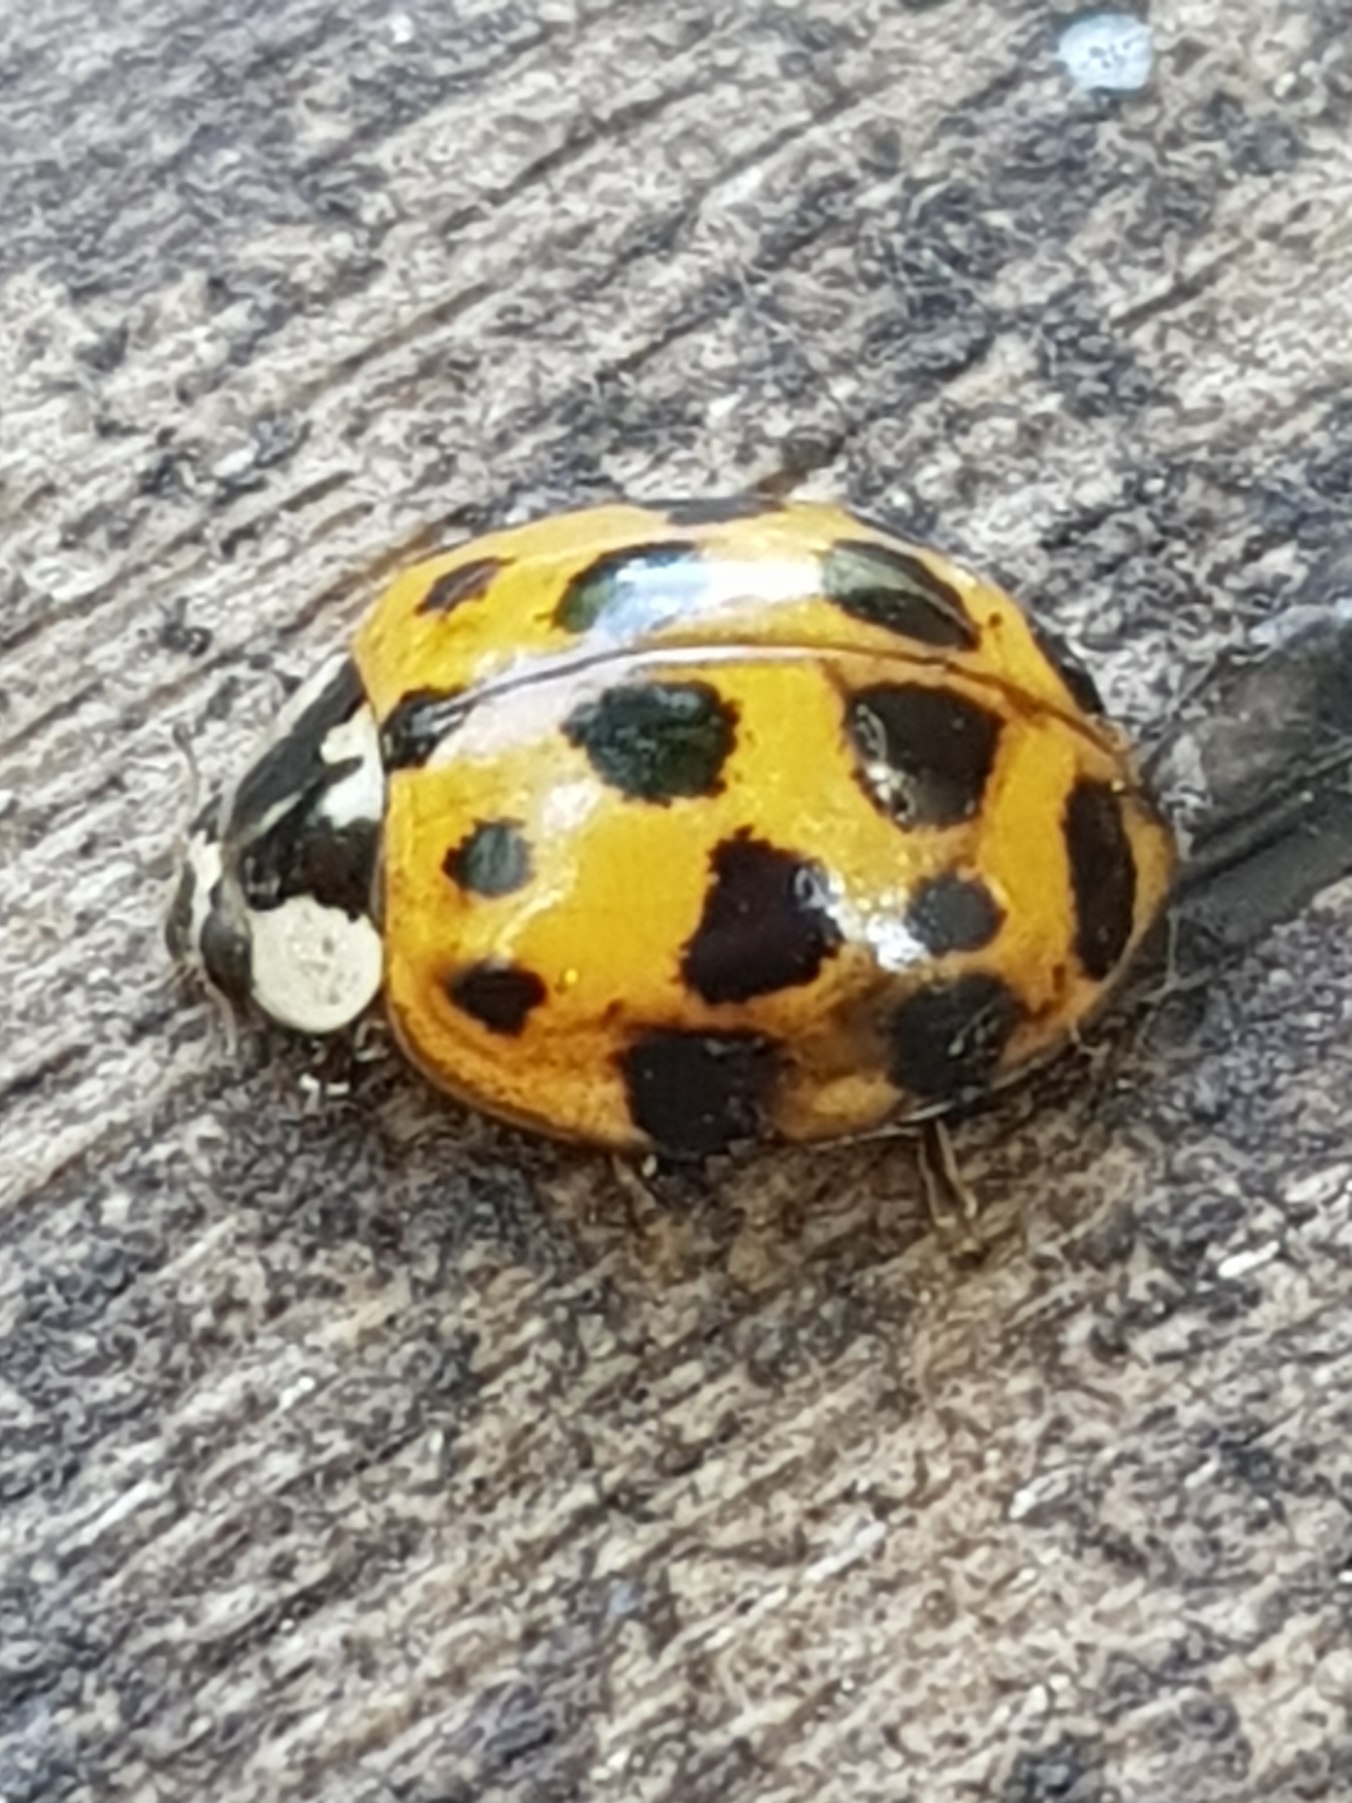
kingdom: Animalia
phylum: Arthropoda
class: Insecta
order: Coleoptera
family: Coccinellidae
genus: Harmonia
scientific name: Harmonia axyridis
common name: Harlekinmariehøne
